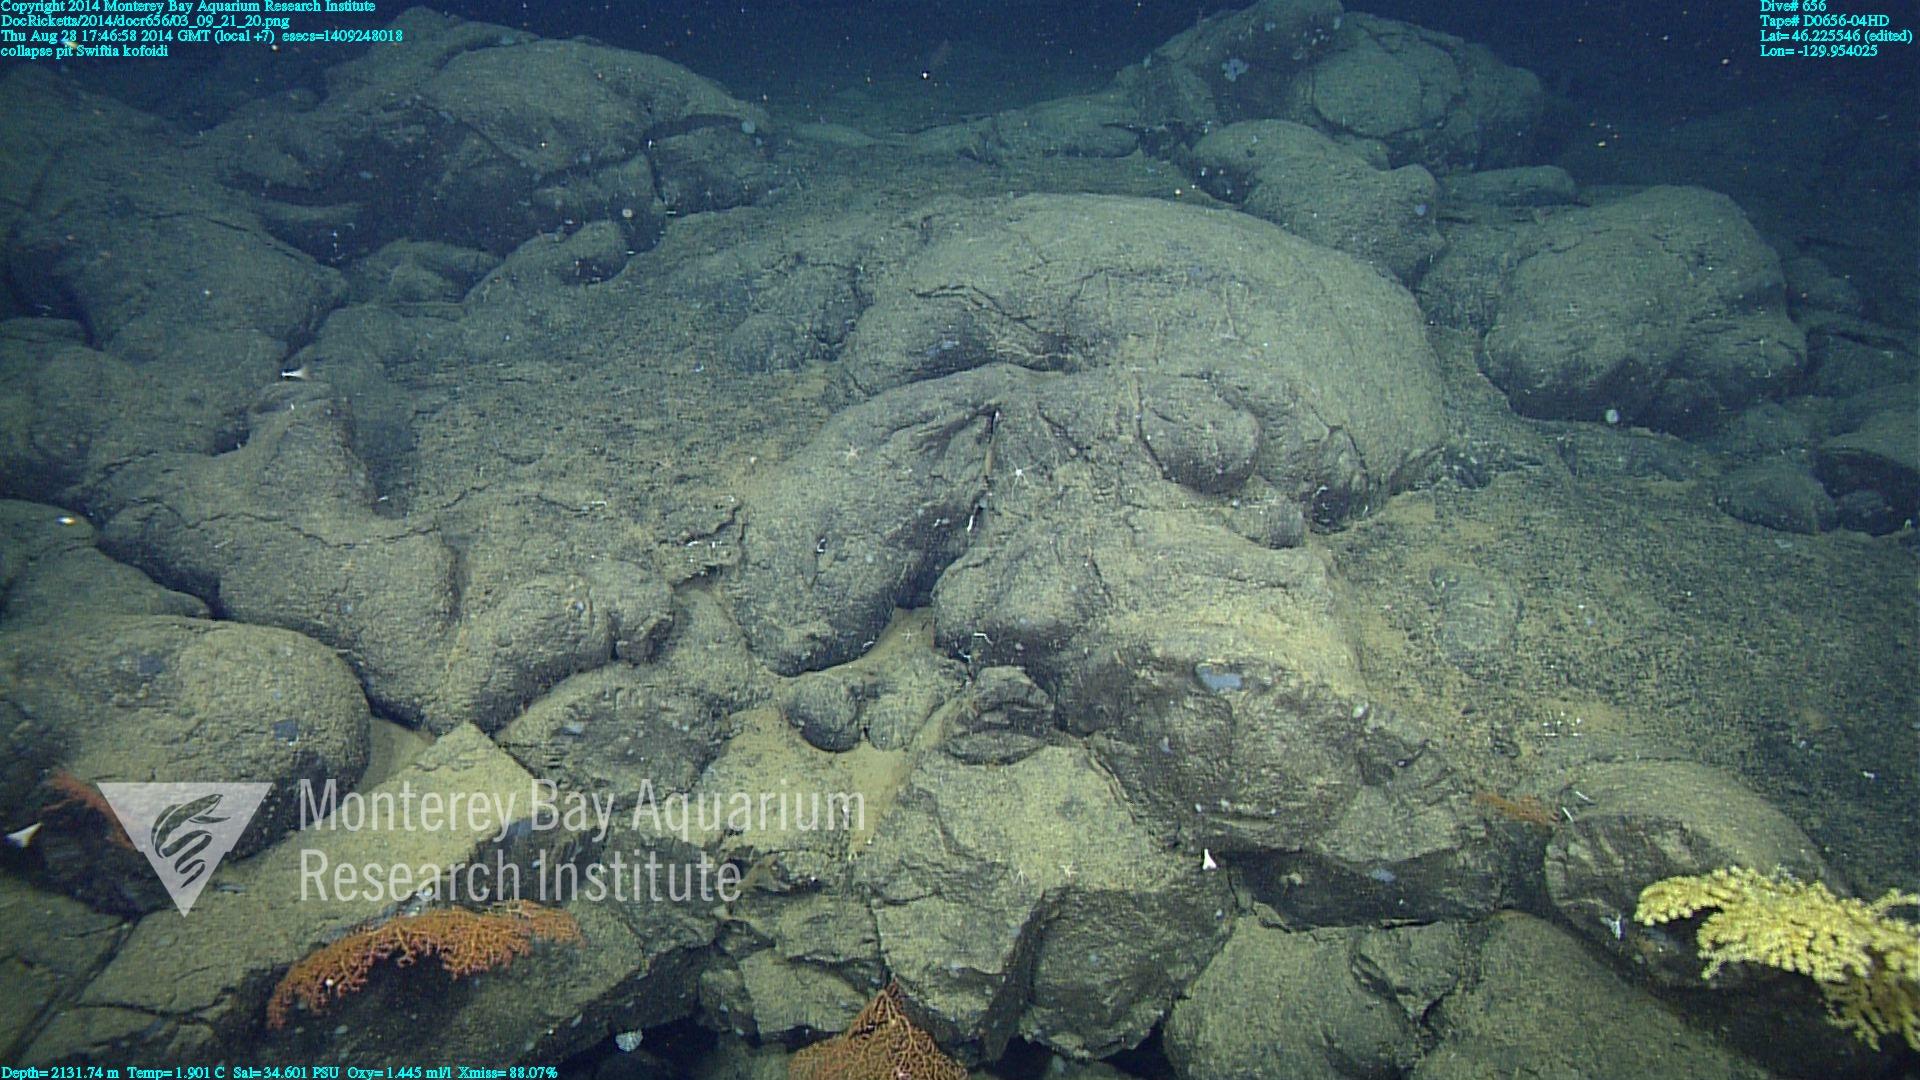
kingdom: Animalia
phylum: Cnidaria
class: Anthozoa
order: Malacalcyonacea
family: Gorgoniidae
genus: Callistephanus
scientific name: Callistephanus kofoidi
